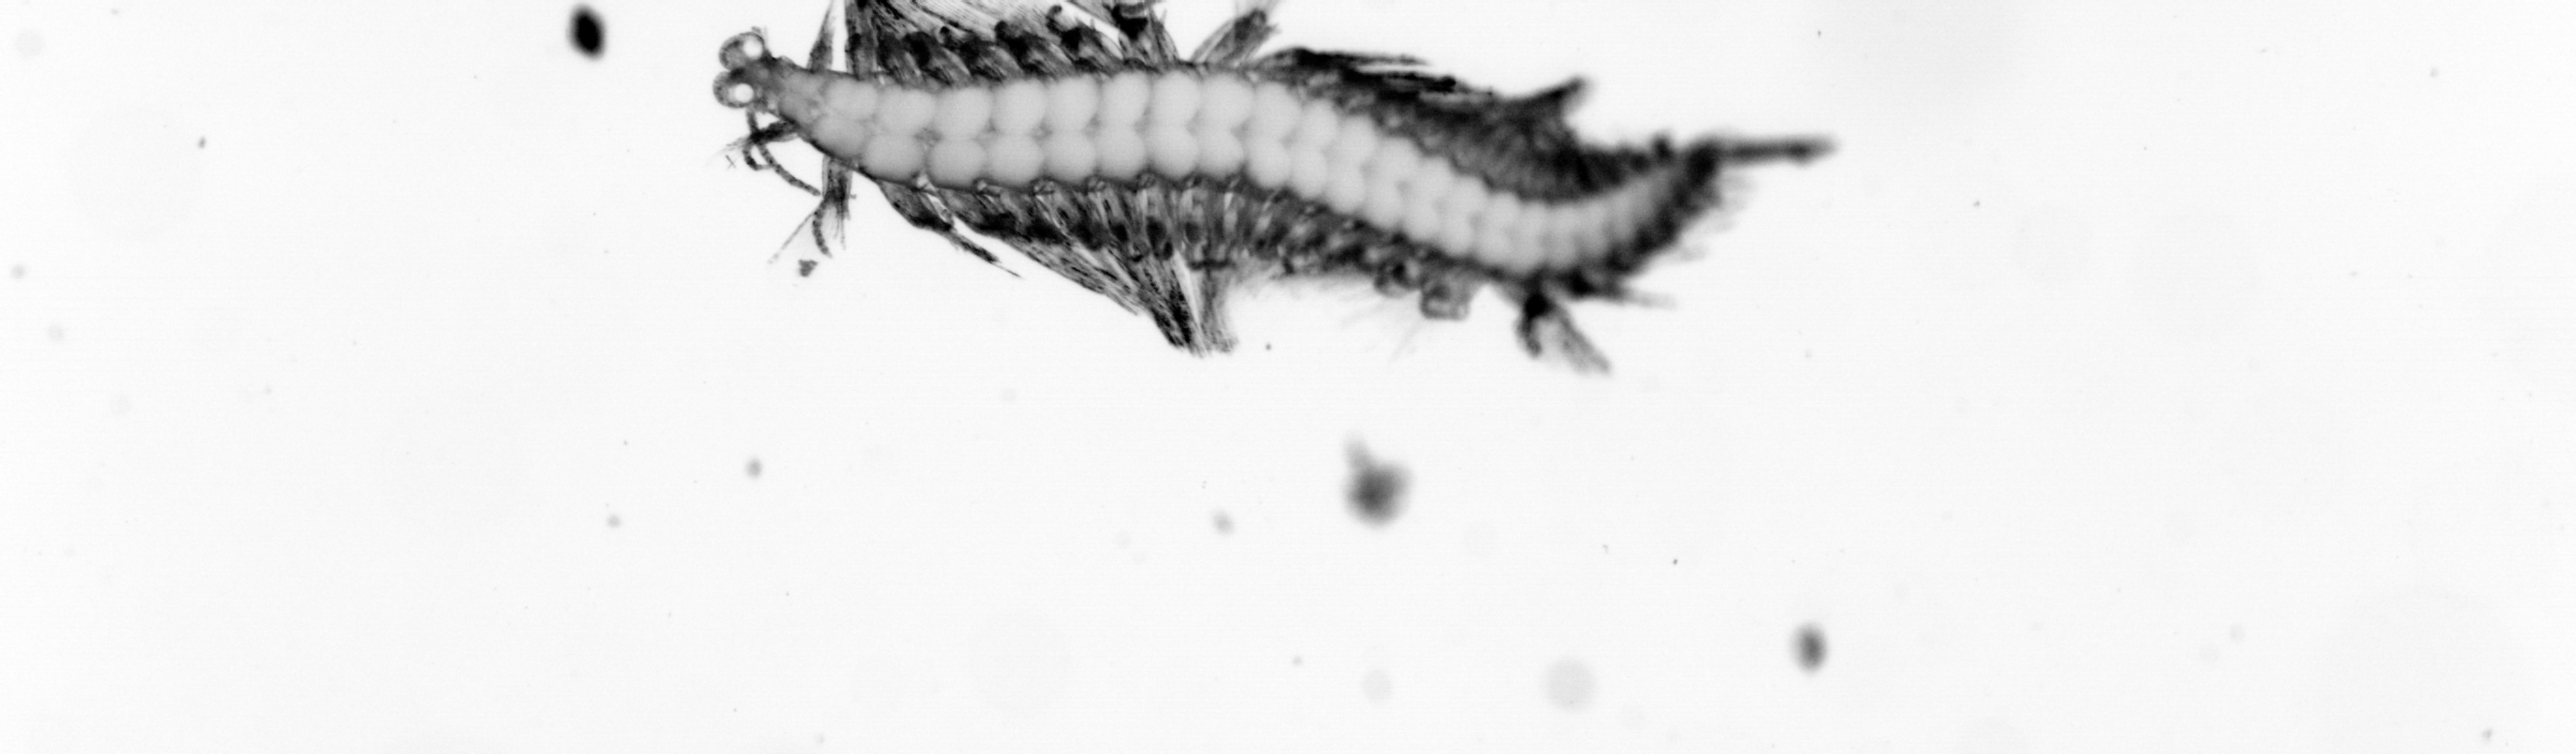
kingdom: Animalia
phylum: Annelida
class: Polychaeta
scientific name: Polychaeta
